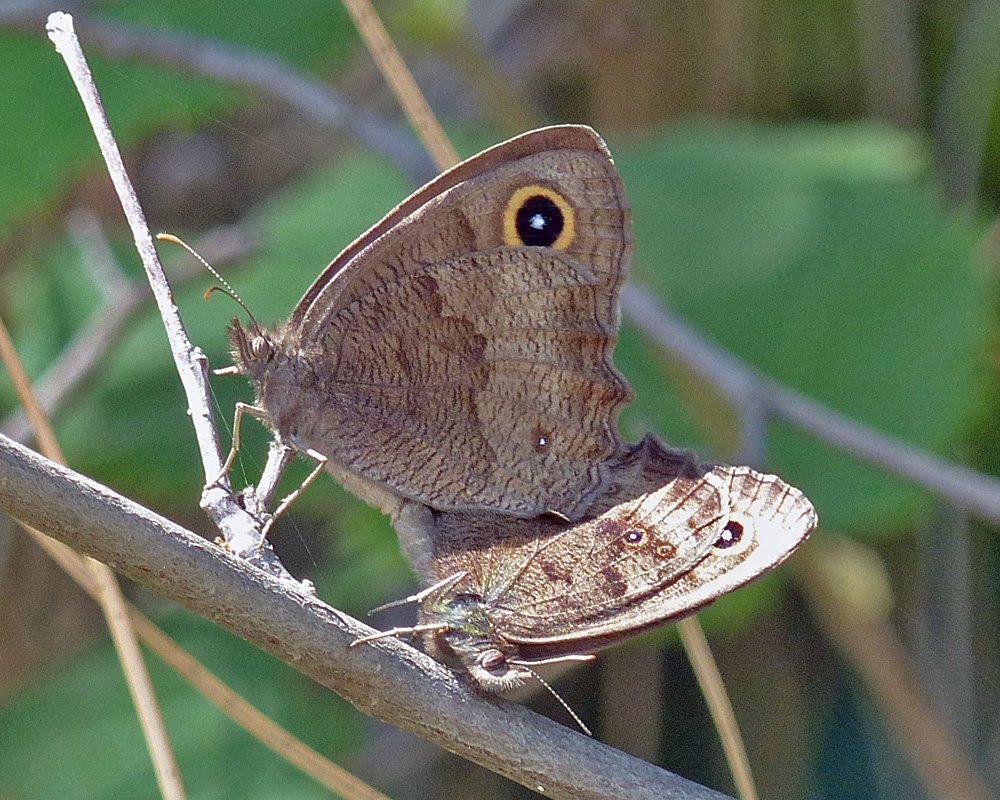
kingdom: Animalia
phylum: Arthropoda
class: Insecta
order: Lepidoptera
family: Nymphalidae
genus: Cercyonis
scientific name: Cercyonis pegala
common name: Common Wood-Nymph
